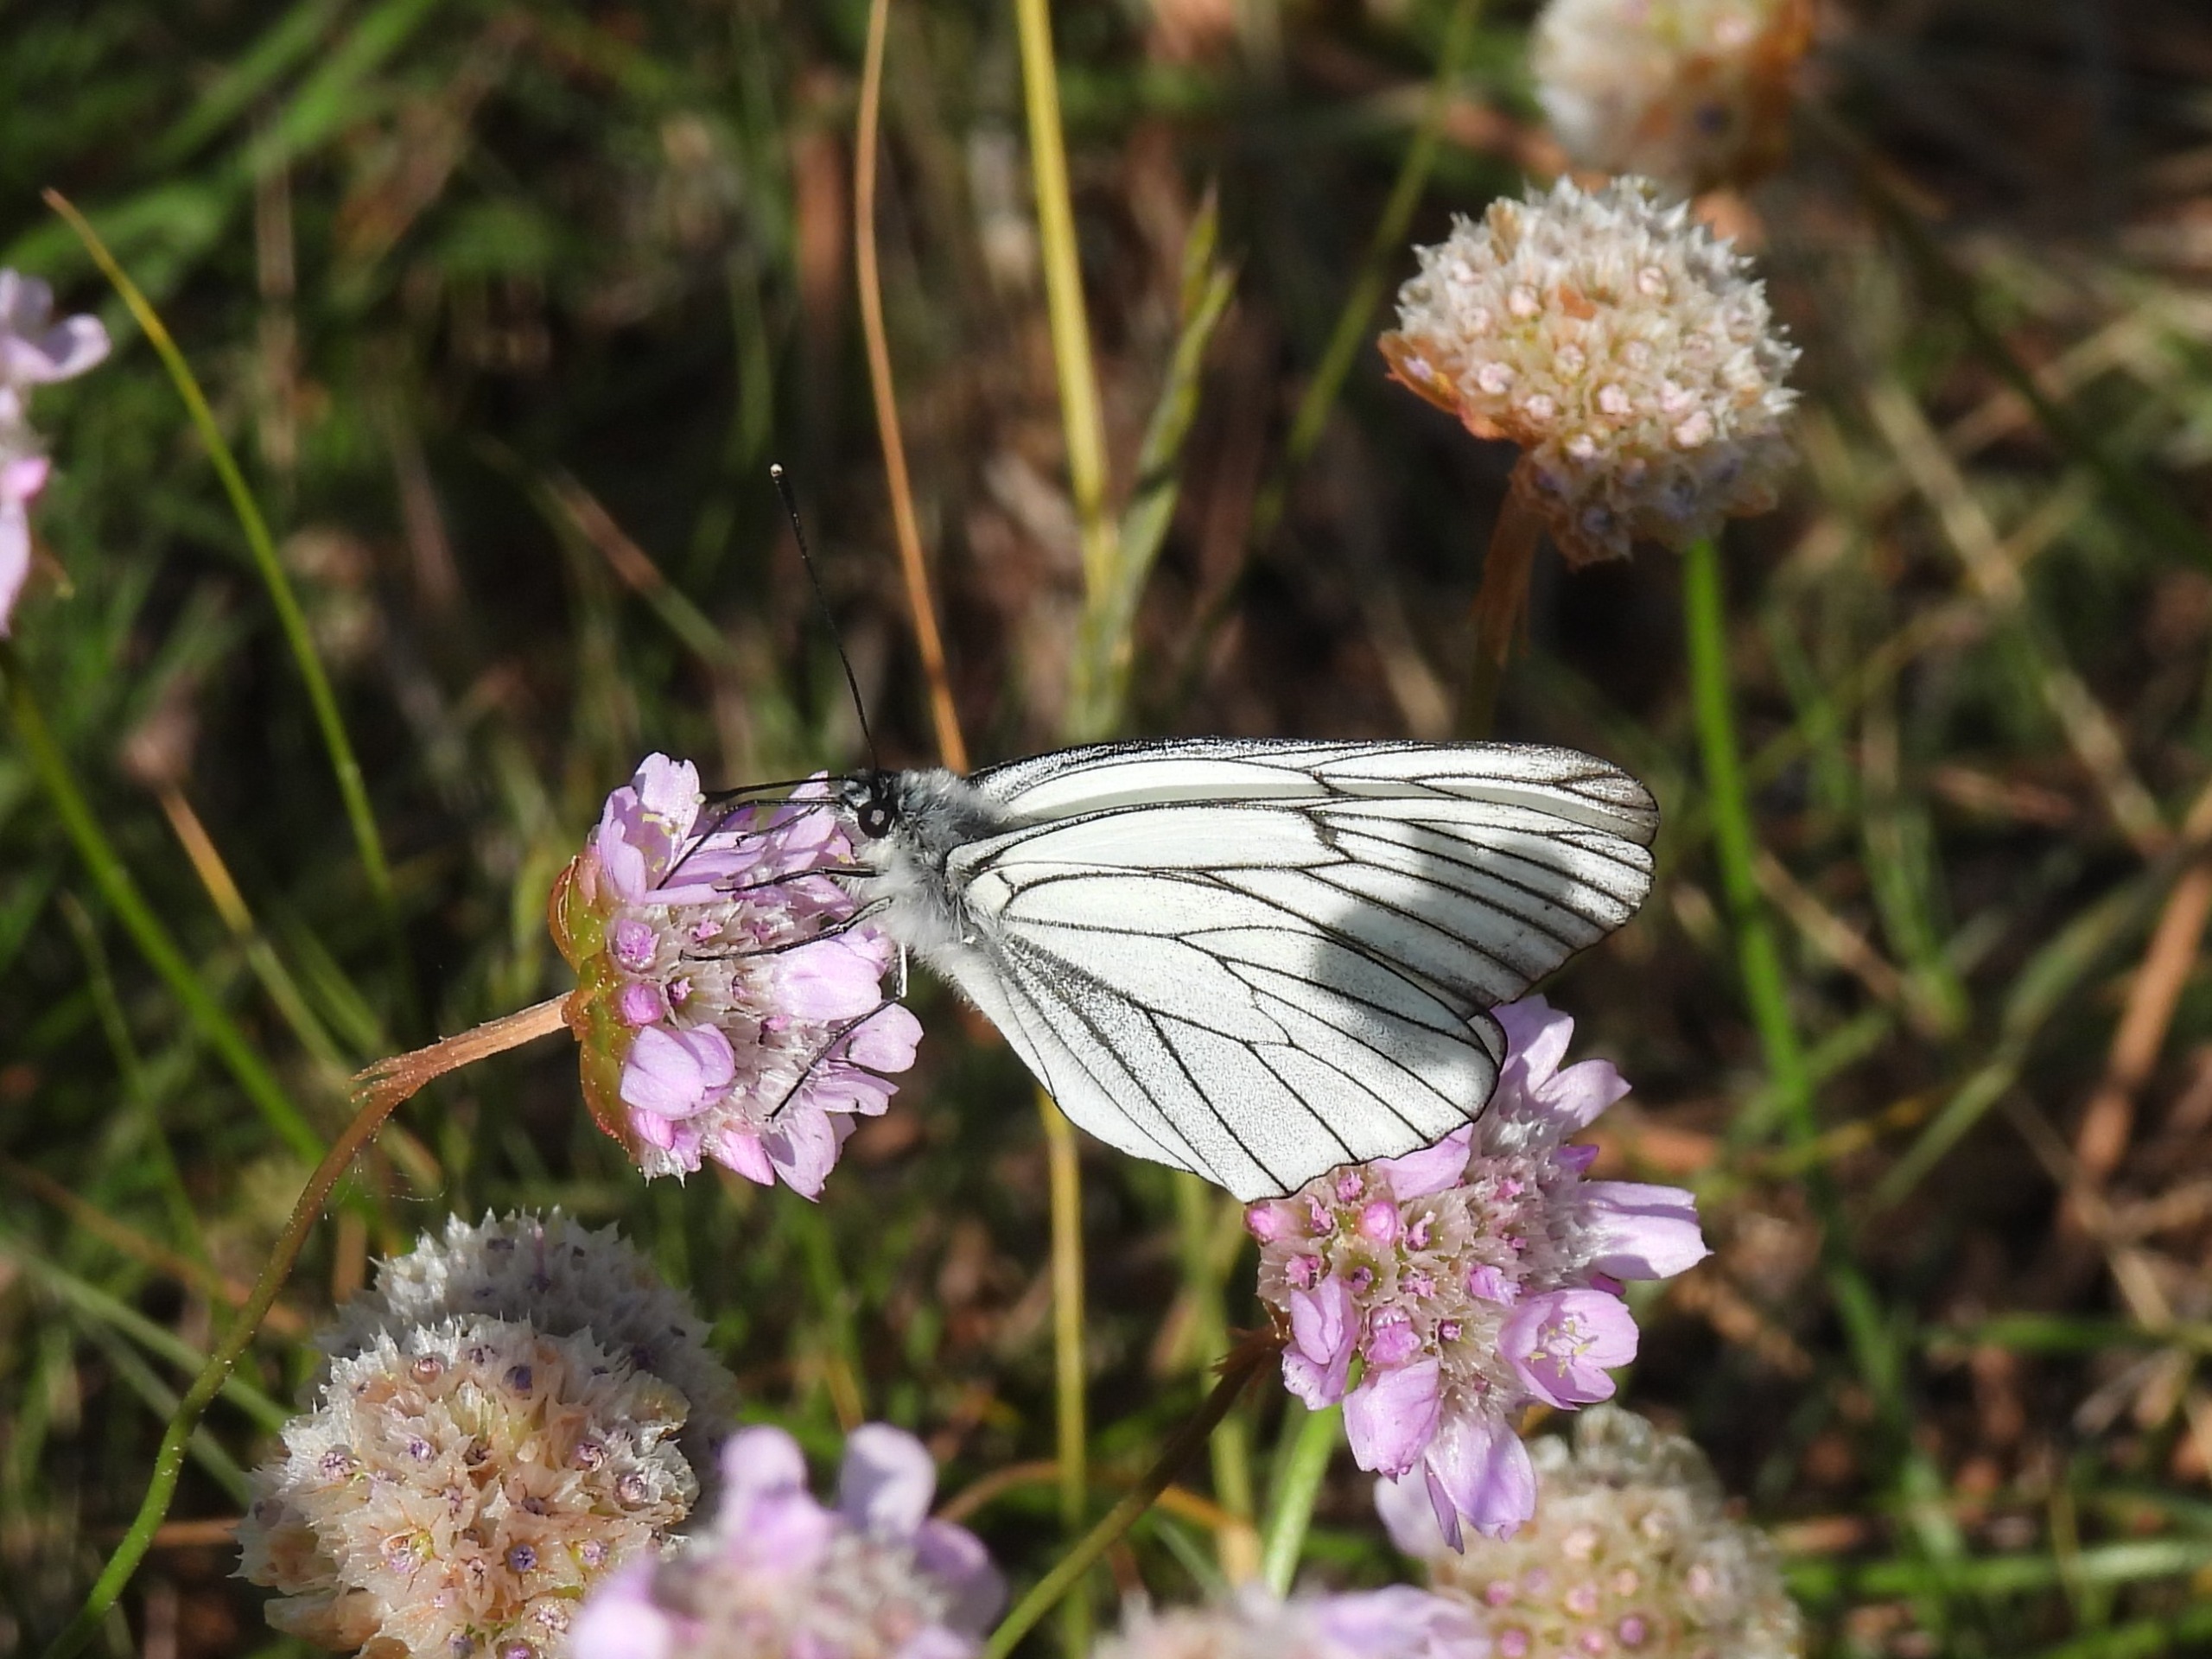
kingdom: Animalia
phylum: Arthropoda
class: Insecta
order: Lepidoptera
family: Pieridae
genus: Aporia
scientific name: Aporia crataegi
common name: Sortåret hvidvinge
